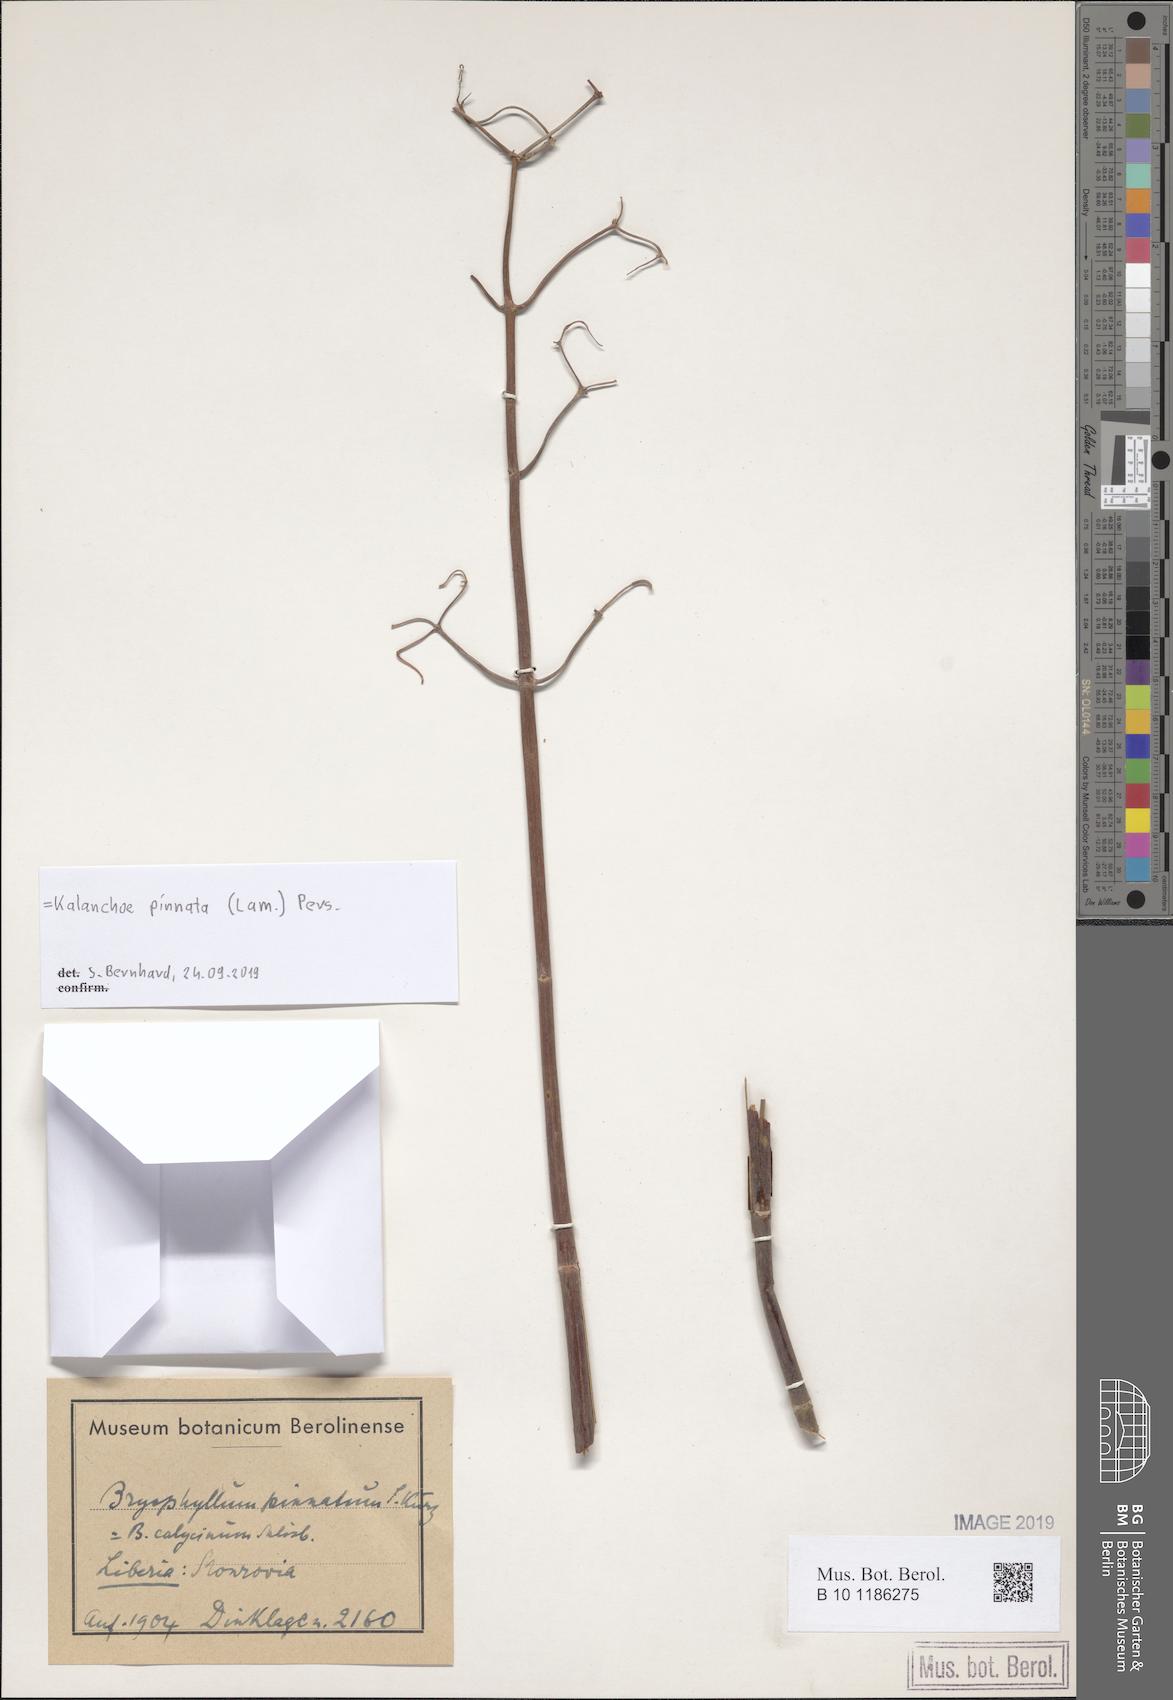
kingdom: Plantae
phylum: Tracheophyta
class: Magnoliopsida
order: Saxifragales
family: Crassulaceae
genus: Kalanchoe
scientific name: Kalanchoe pinnata
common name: Cathedral bells
